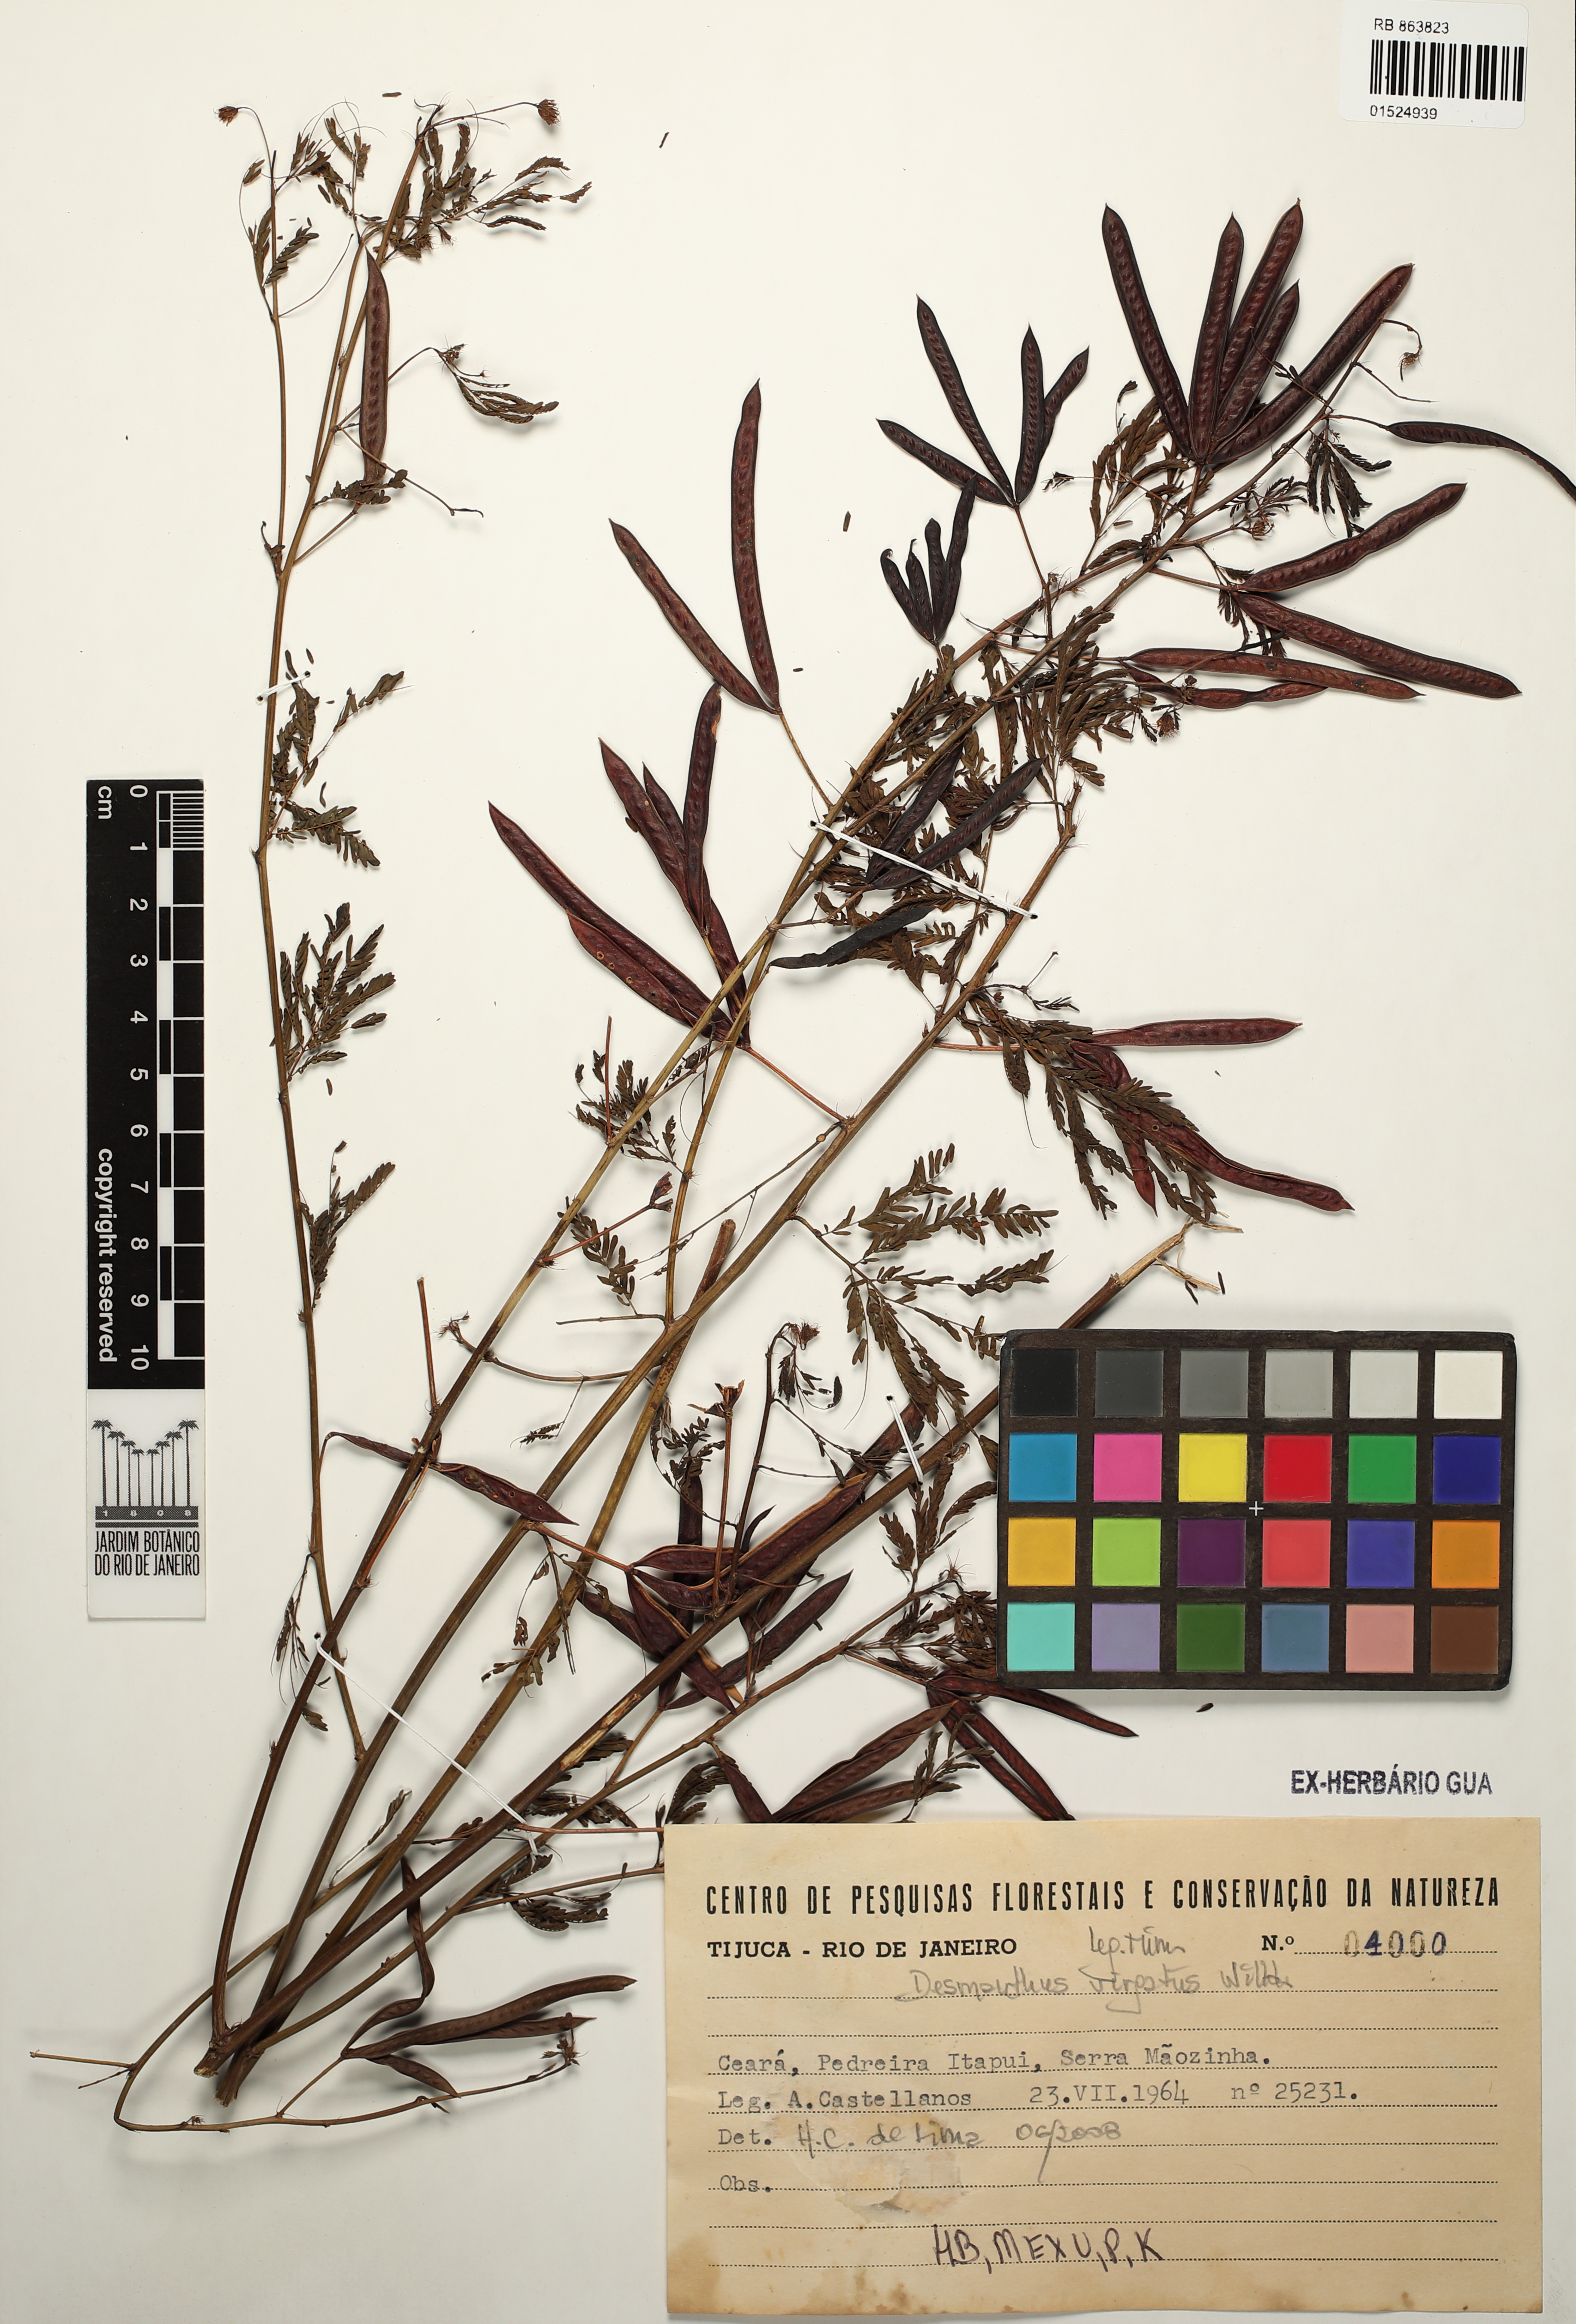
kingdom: Plantae
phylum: Tracheophyta
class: Magnoliopsida
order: Fabales
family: Fabaceae
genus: Desmanthus
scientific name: Desmanthus virgatus
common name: Wild tantan
